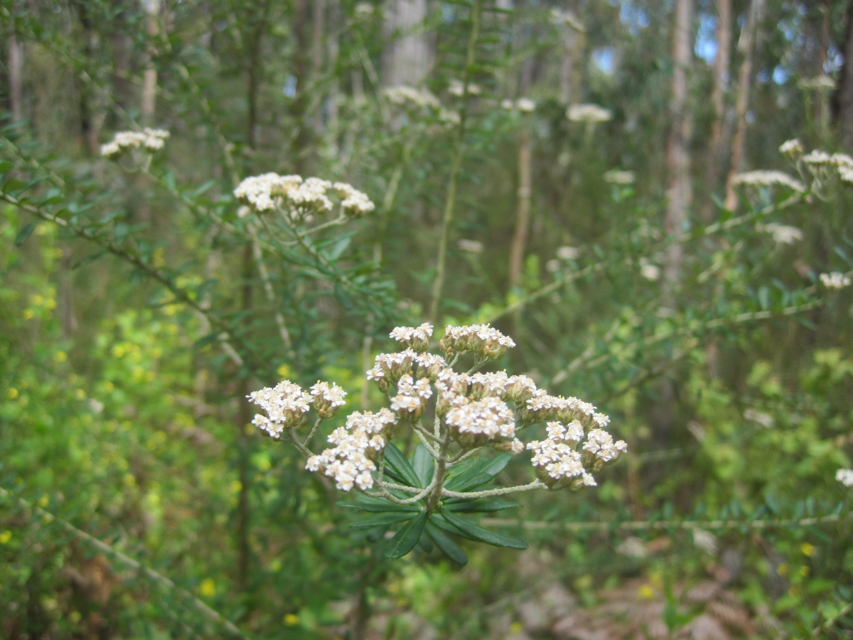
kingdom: Plantae
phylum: Tracheophyta
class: Magnoliopsida
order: Asterales
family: Asteraceae
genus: Cassinia
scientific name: Cassinia aculeata
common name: Australian tauhinu
